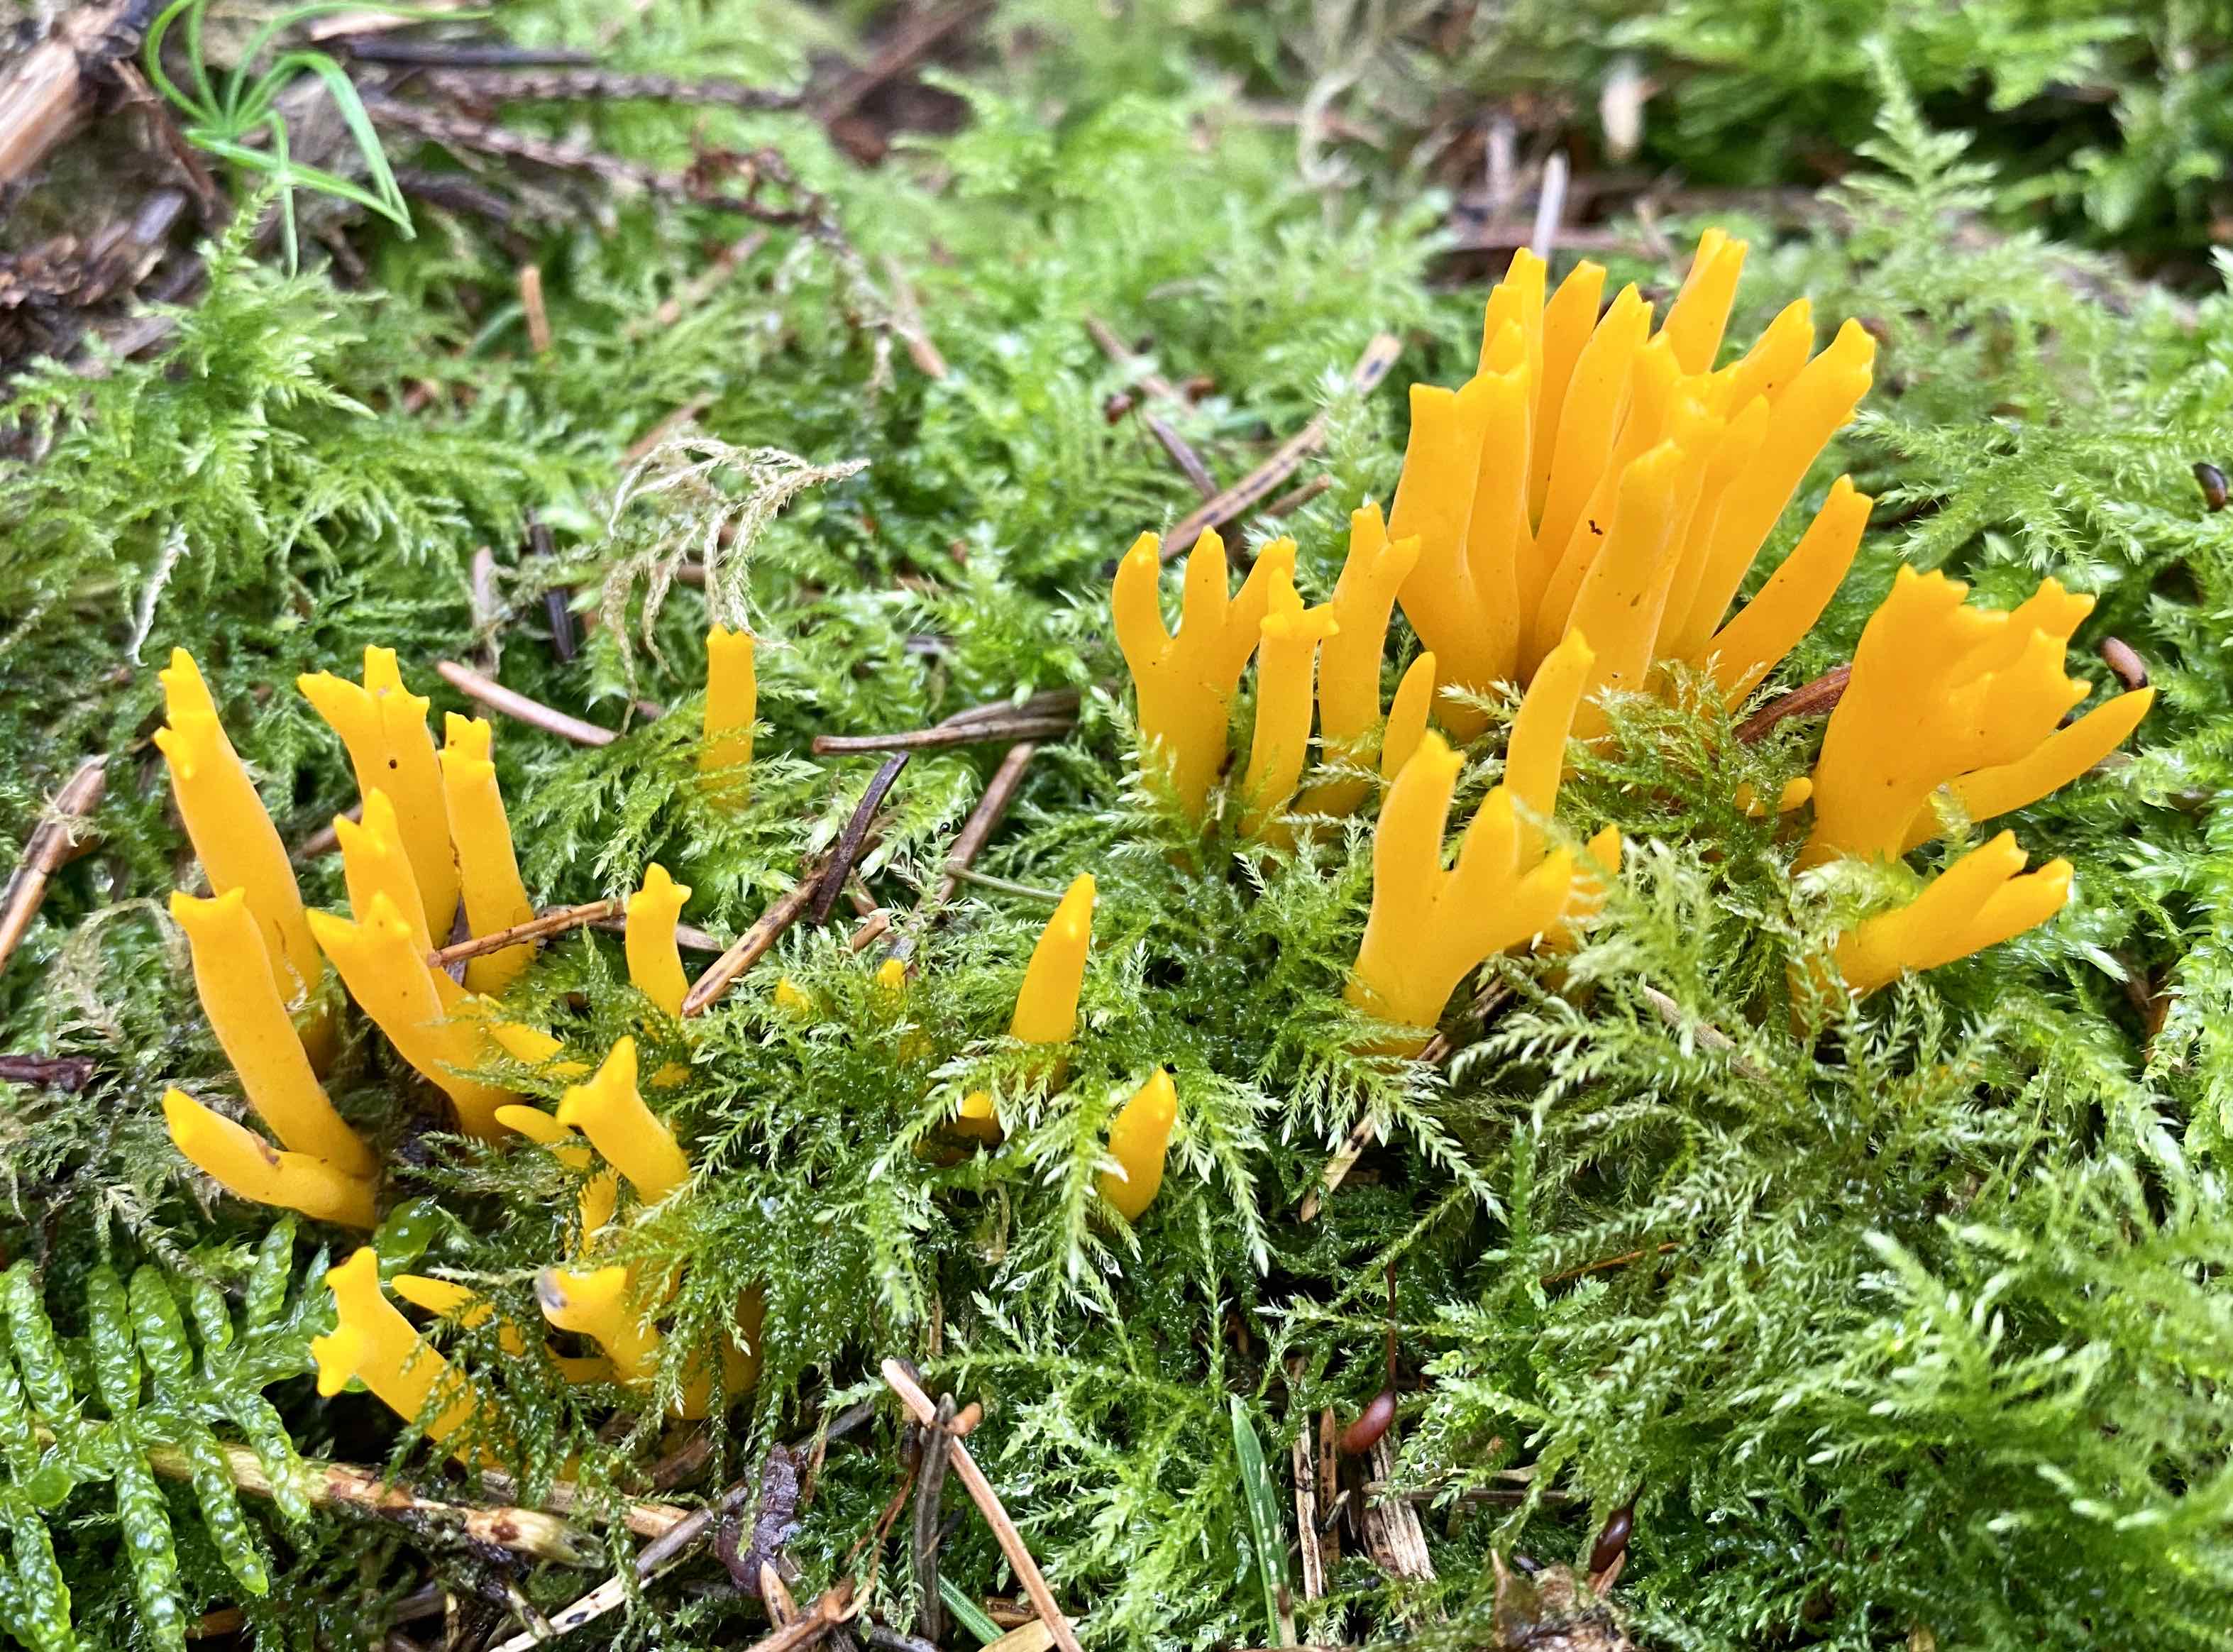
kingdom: Fungi
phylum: Basidiomycota
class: Dacrymycetes
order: Dacrymycetales
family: Dacrymycetaceae
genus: Calocera
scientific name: Calocera viscosa
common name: almindelig guldgaffel
